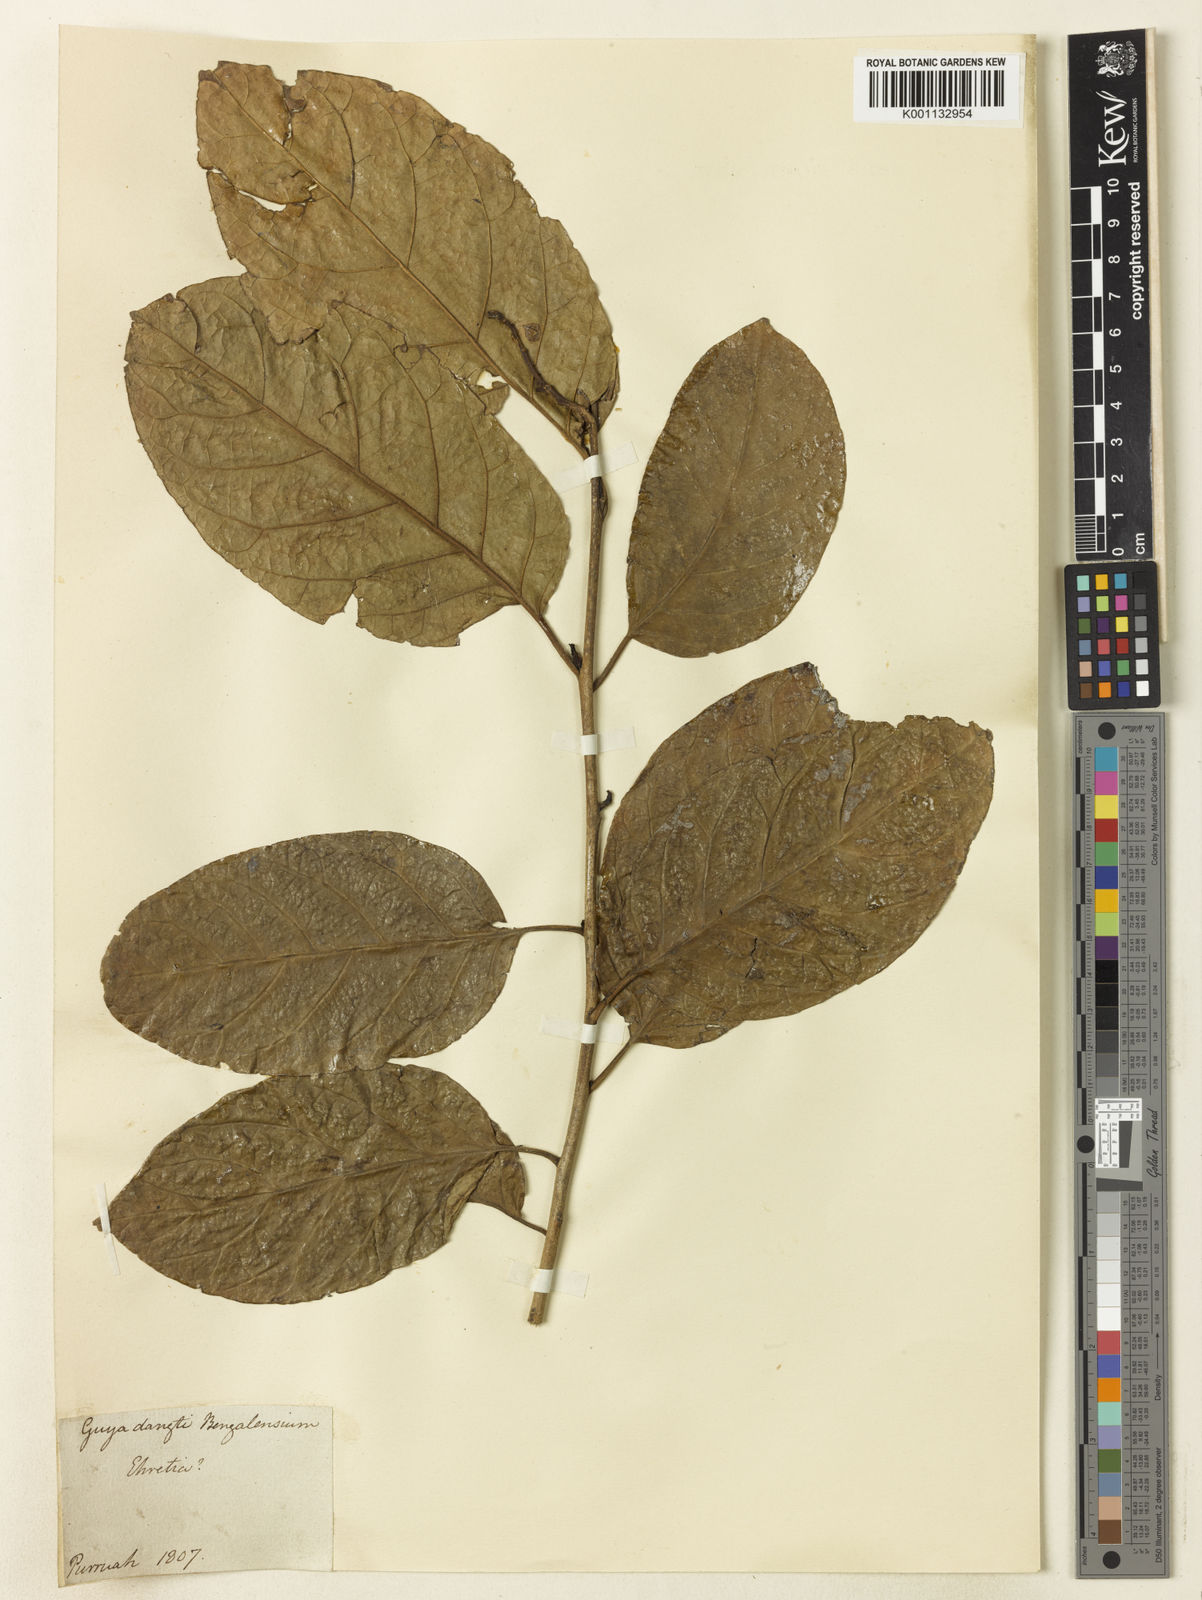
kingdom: Plantae
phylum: Tracheophyta
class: Magnoliopsida
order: Boraginales
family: Ehretiaceae
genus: Ehretia
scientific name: Ehretia
